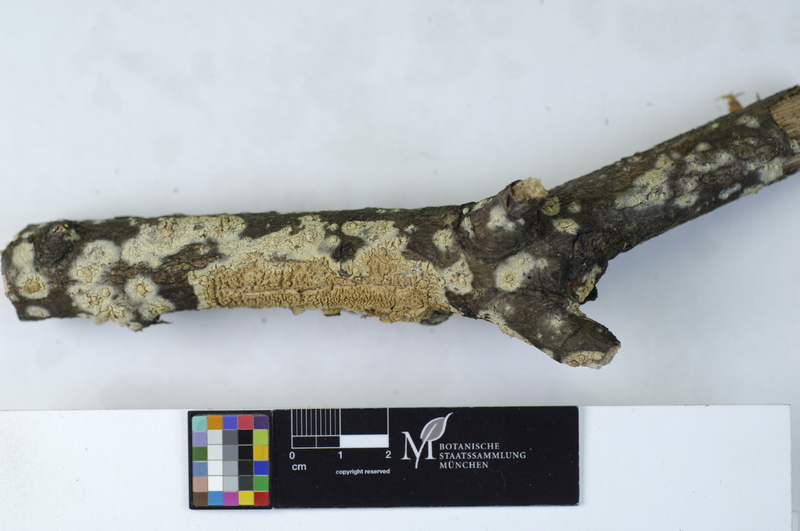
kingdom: Fungi
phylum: Basidiomycota
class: Agaricomycetes
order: Hymenochaetales
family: Schizoporaceae
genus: Xylodon
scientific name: Xylodon radula
